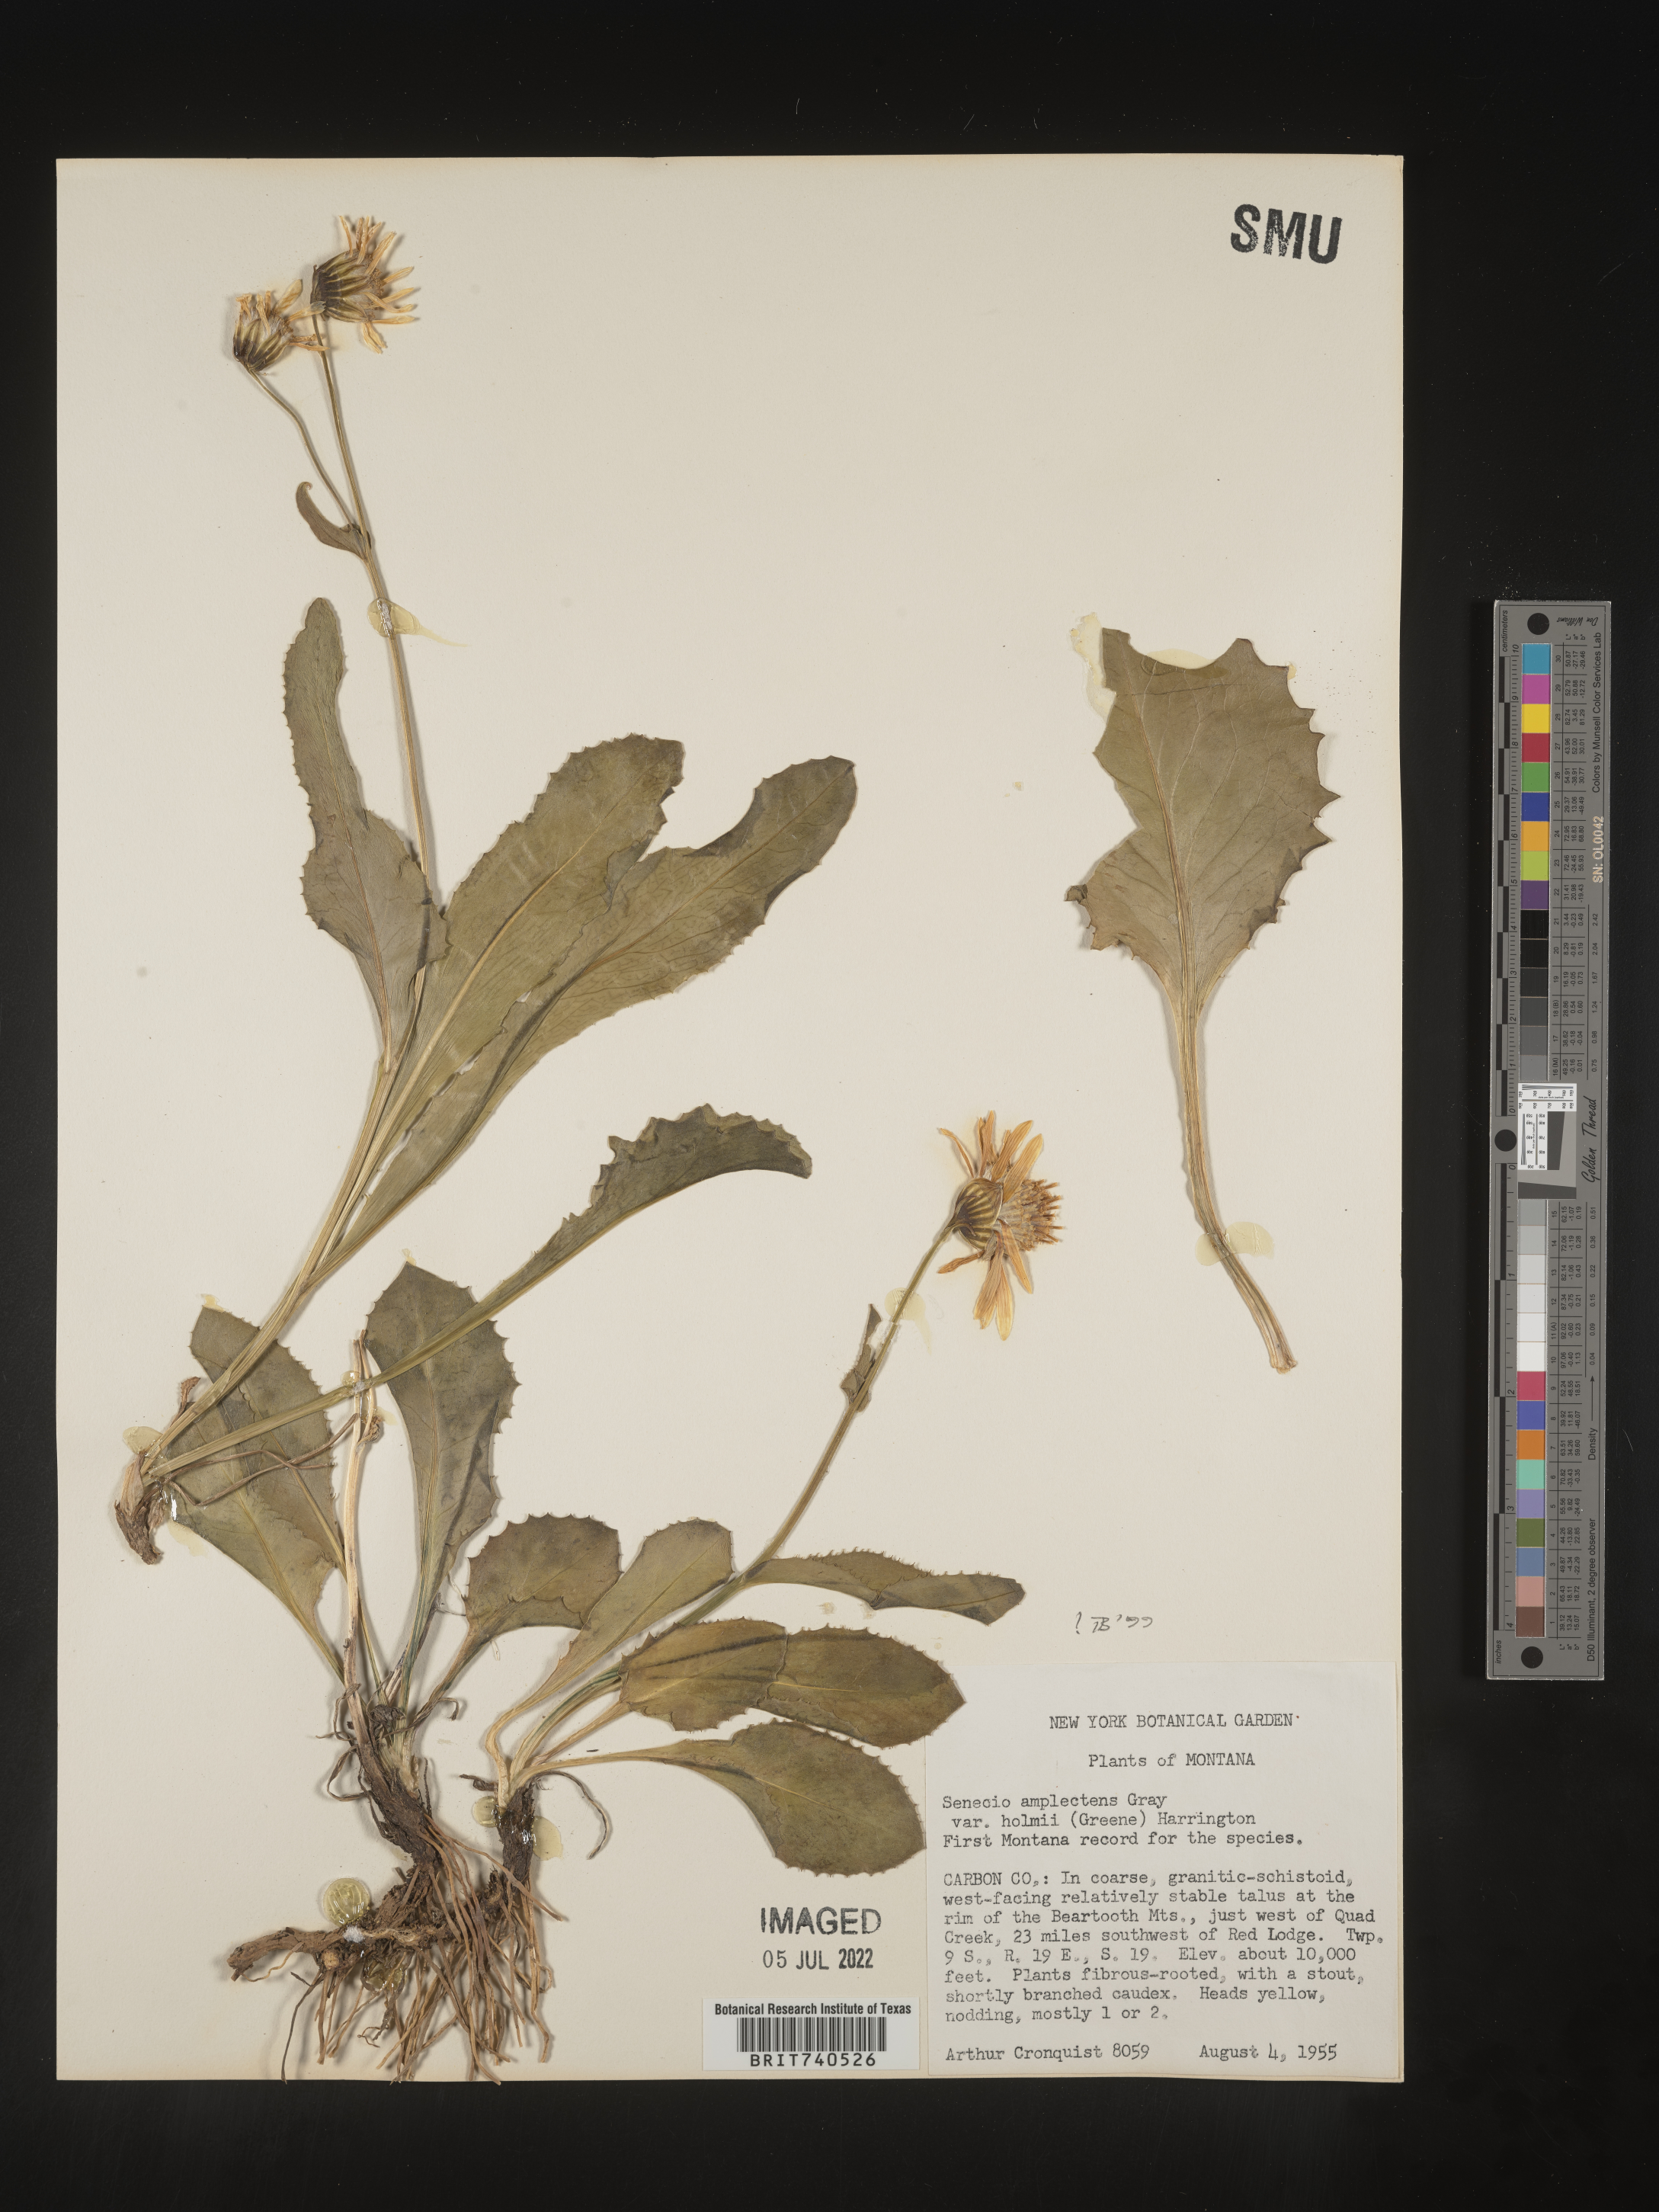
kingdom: Plantae
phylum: Tracheophyta
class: Magnoliopsida
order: Asterales
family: Asteraceae
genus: Senecio
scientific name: Senecio amplectens
